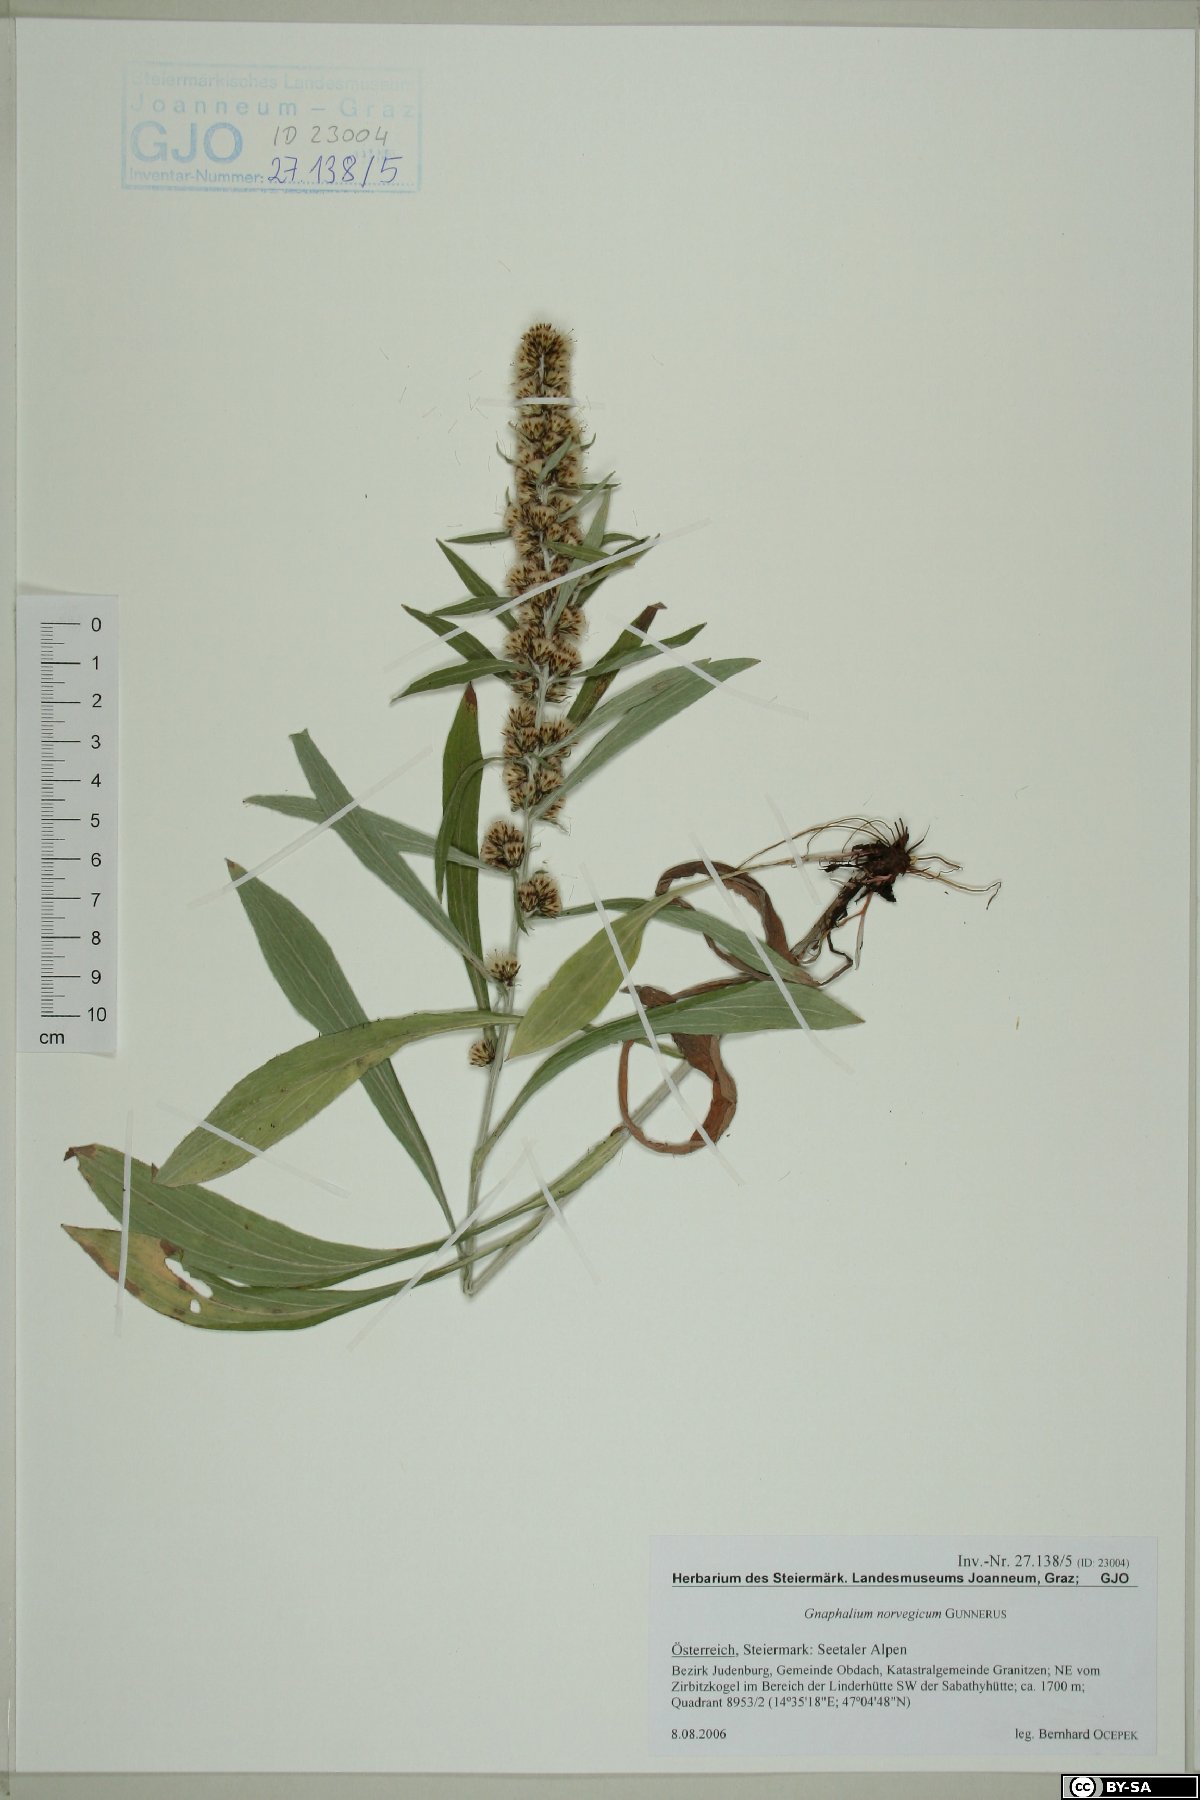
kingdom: Plantae
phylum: Tracheophyta
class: Magnoliopsida
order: Asterales
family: Asteraceae
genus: Omalotheca
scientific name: Omalotheca norvegica
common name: Norwegian arctic-cudweed
